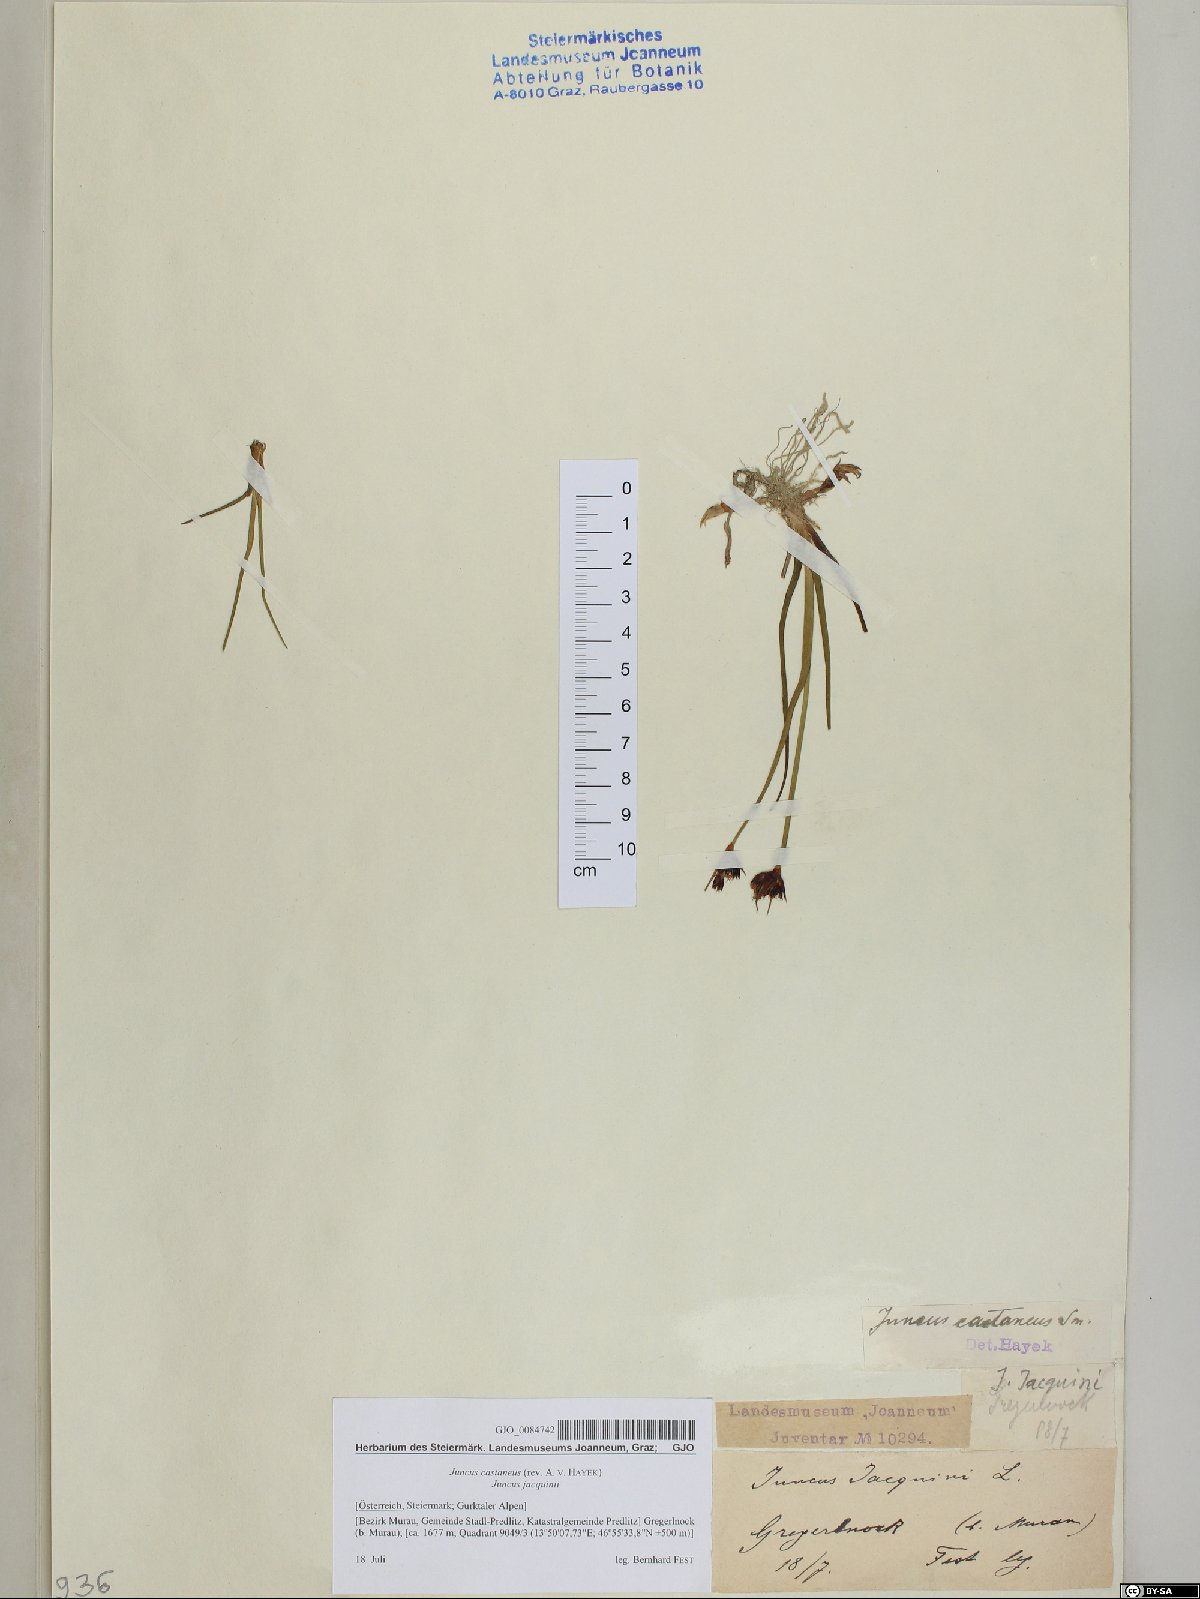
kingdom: Plantae
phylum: Tracheophyta
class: Liliopsida
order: Poales
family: Juncaceae
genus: Juncus
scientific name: Juncus castaneus
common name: Chestnut rush
